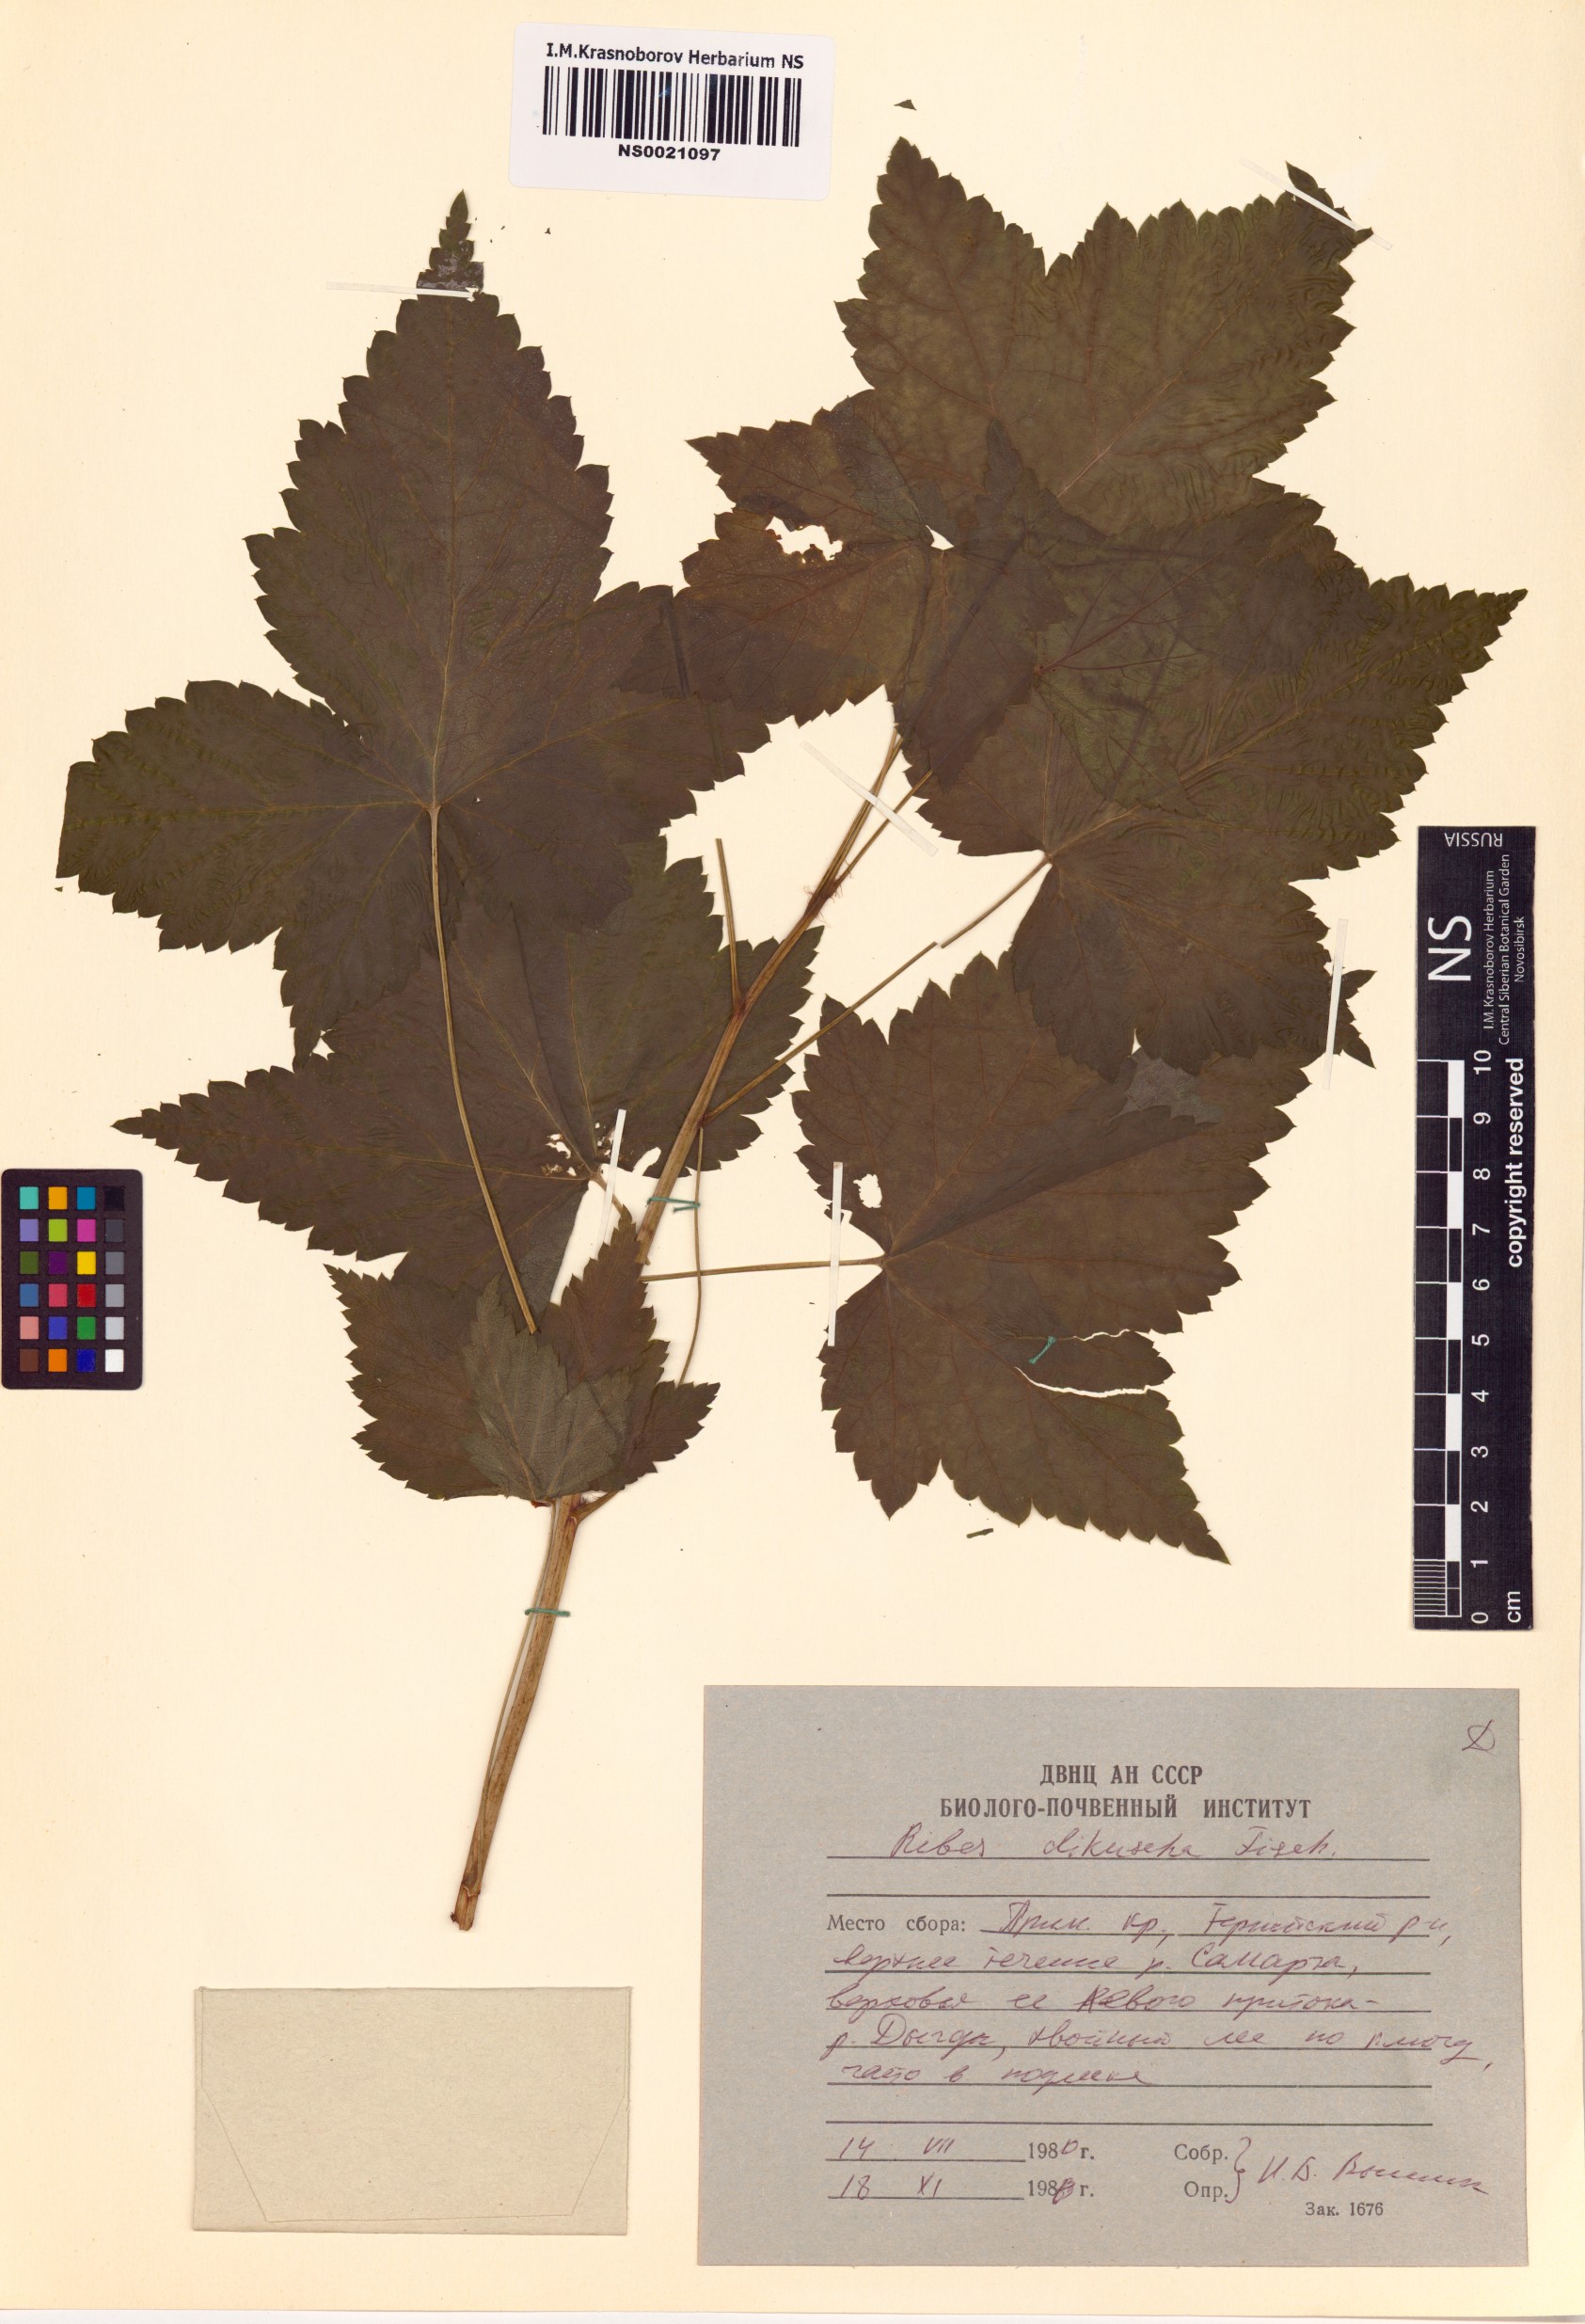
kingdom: Plantae
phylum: Tracheophyta
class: Magnoliopsida
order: Saxifragales
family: Grossulariaceae
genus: Ribes
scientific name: Ribes dikuscha
